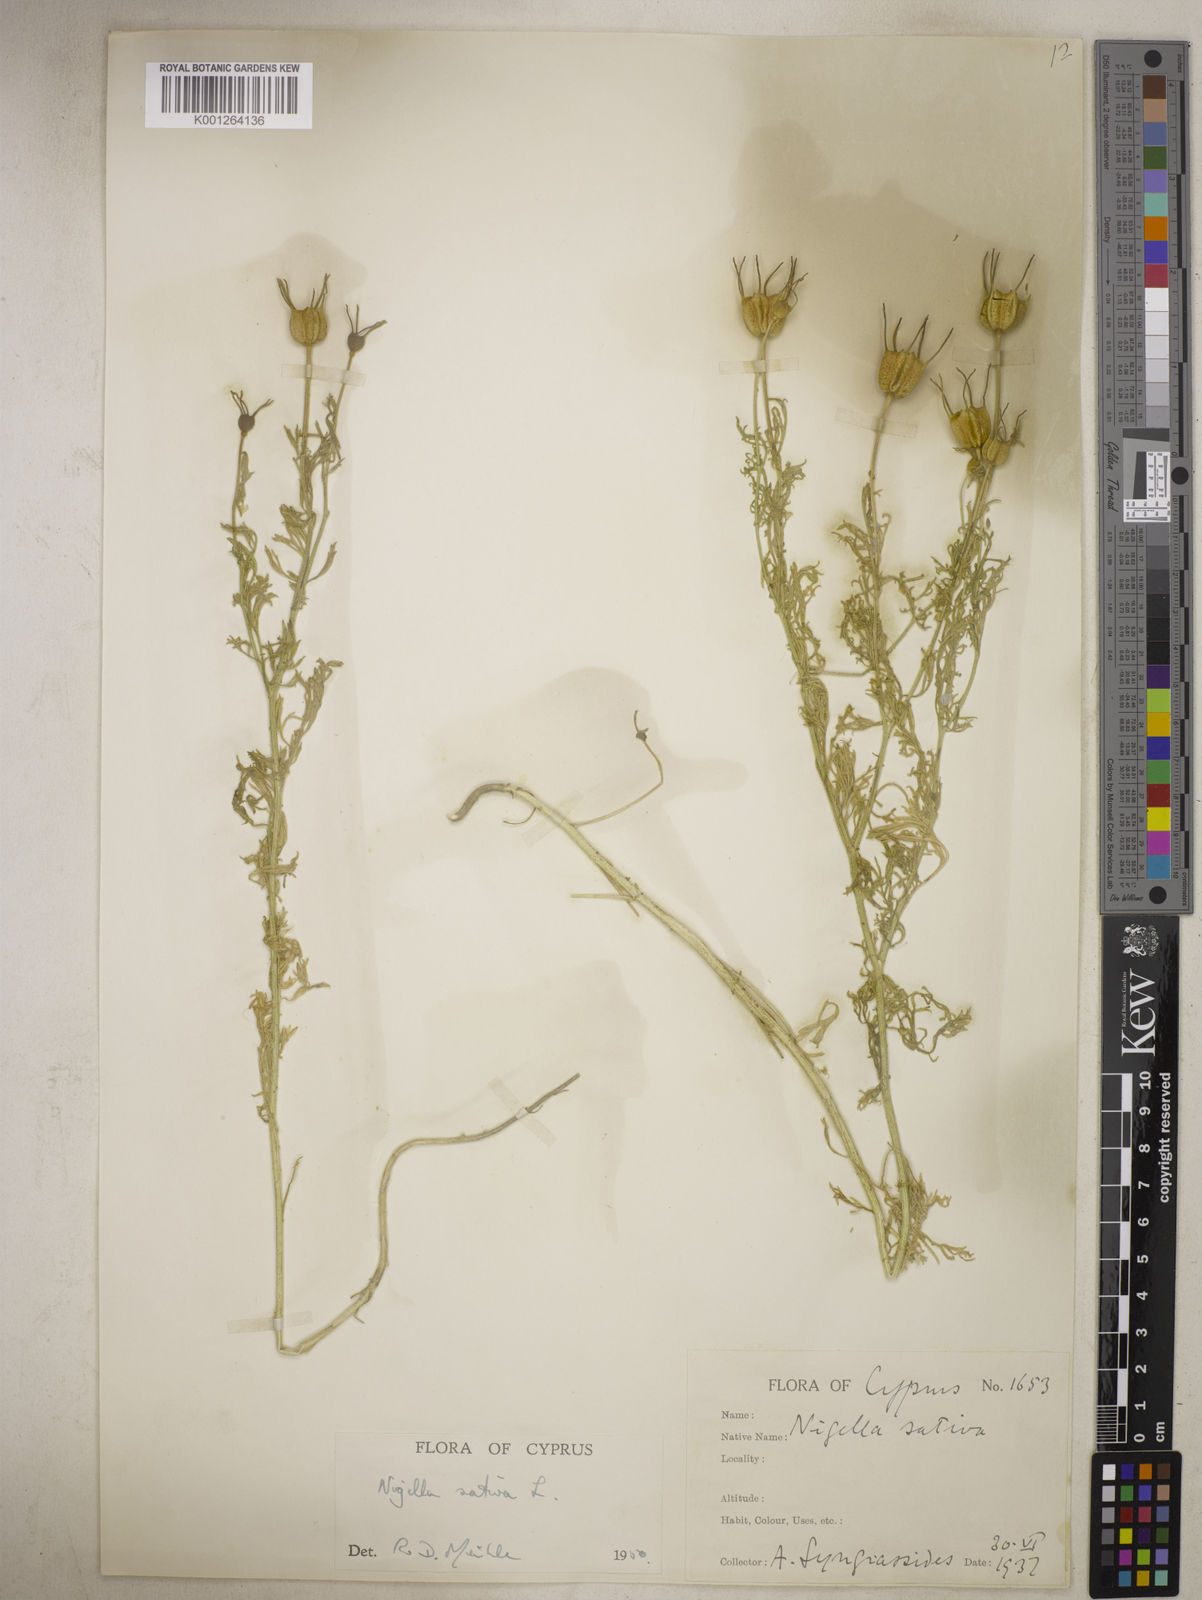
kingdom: Plantae
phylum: Tracheophyta
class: Magnoliopsida
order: Ranunculales
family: Ranunculaceae
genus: Nigella
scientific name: Nigella sativa
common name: Black-cumin
